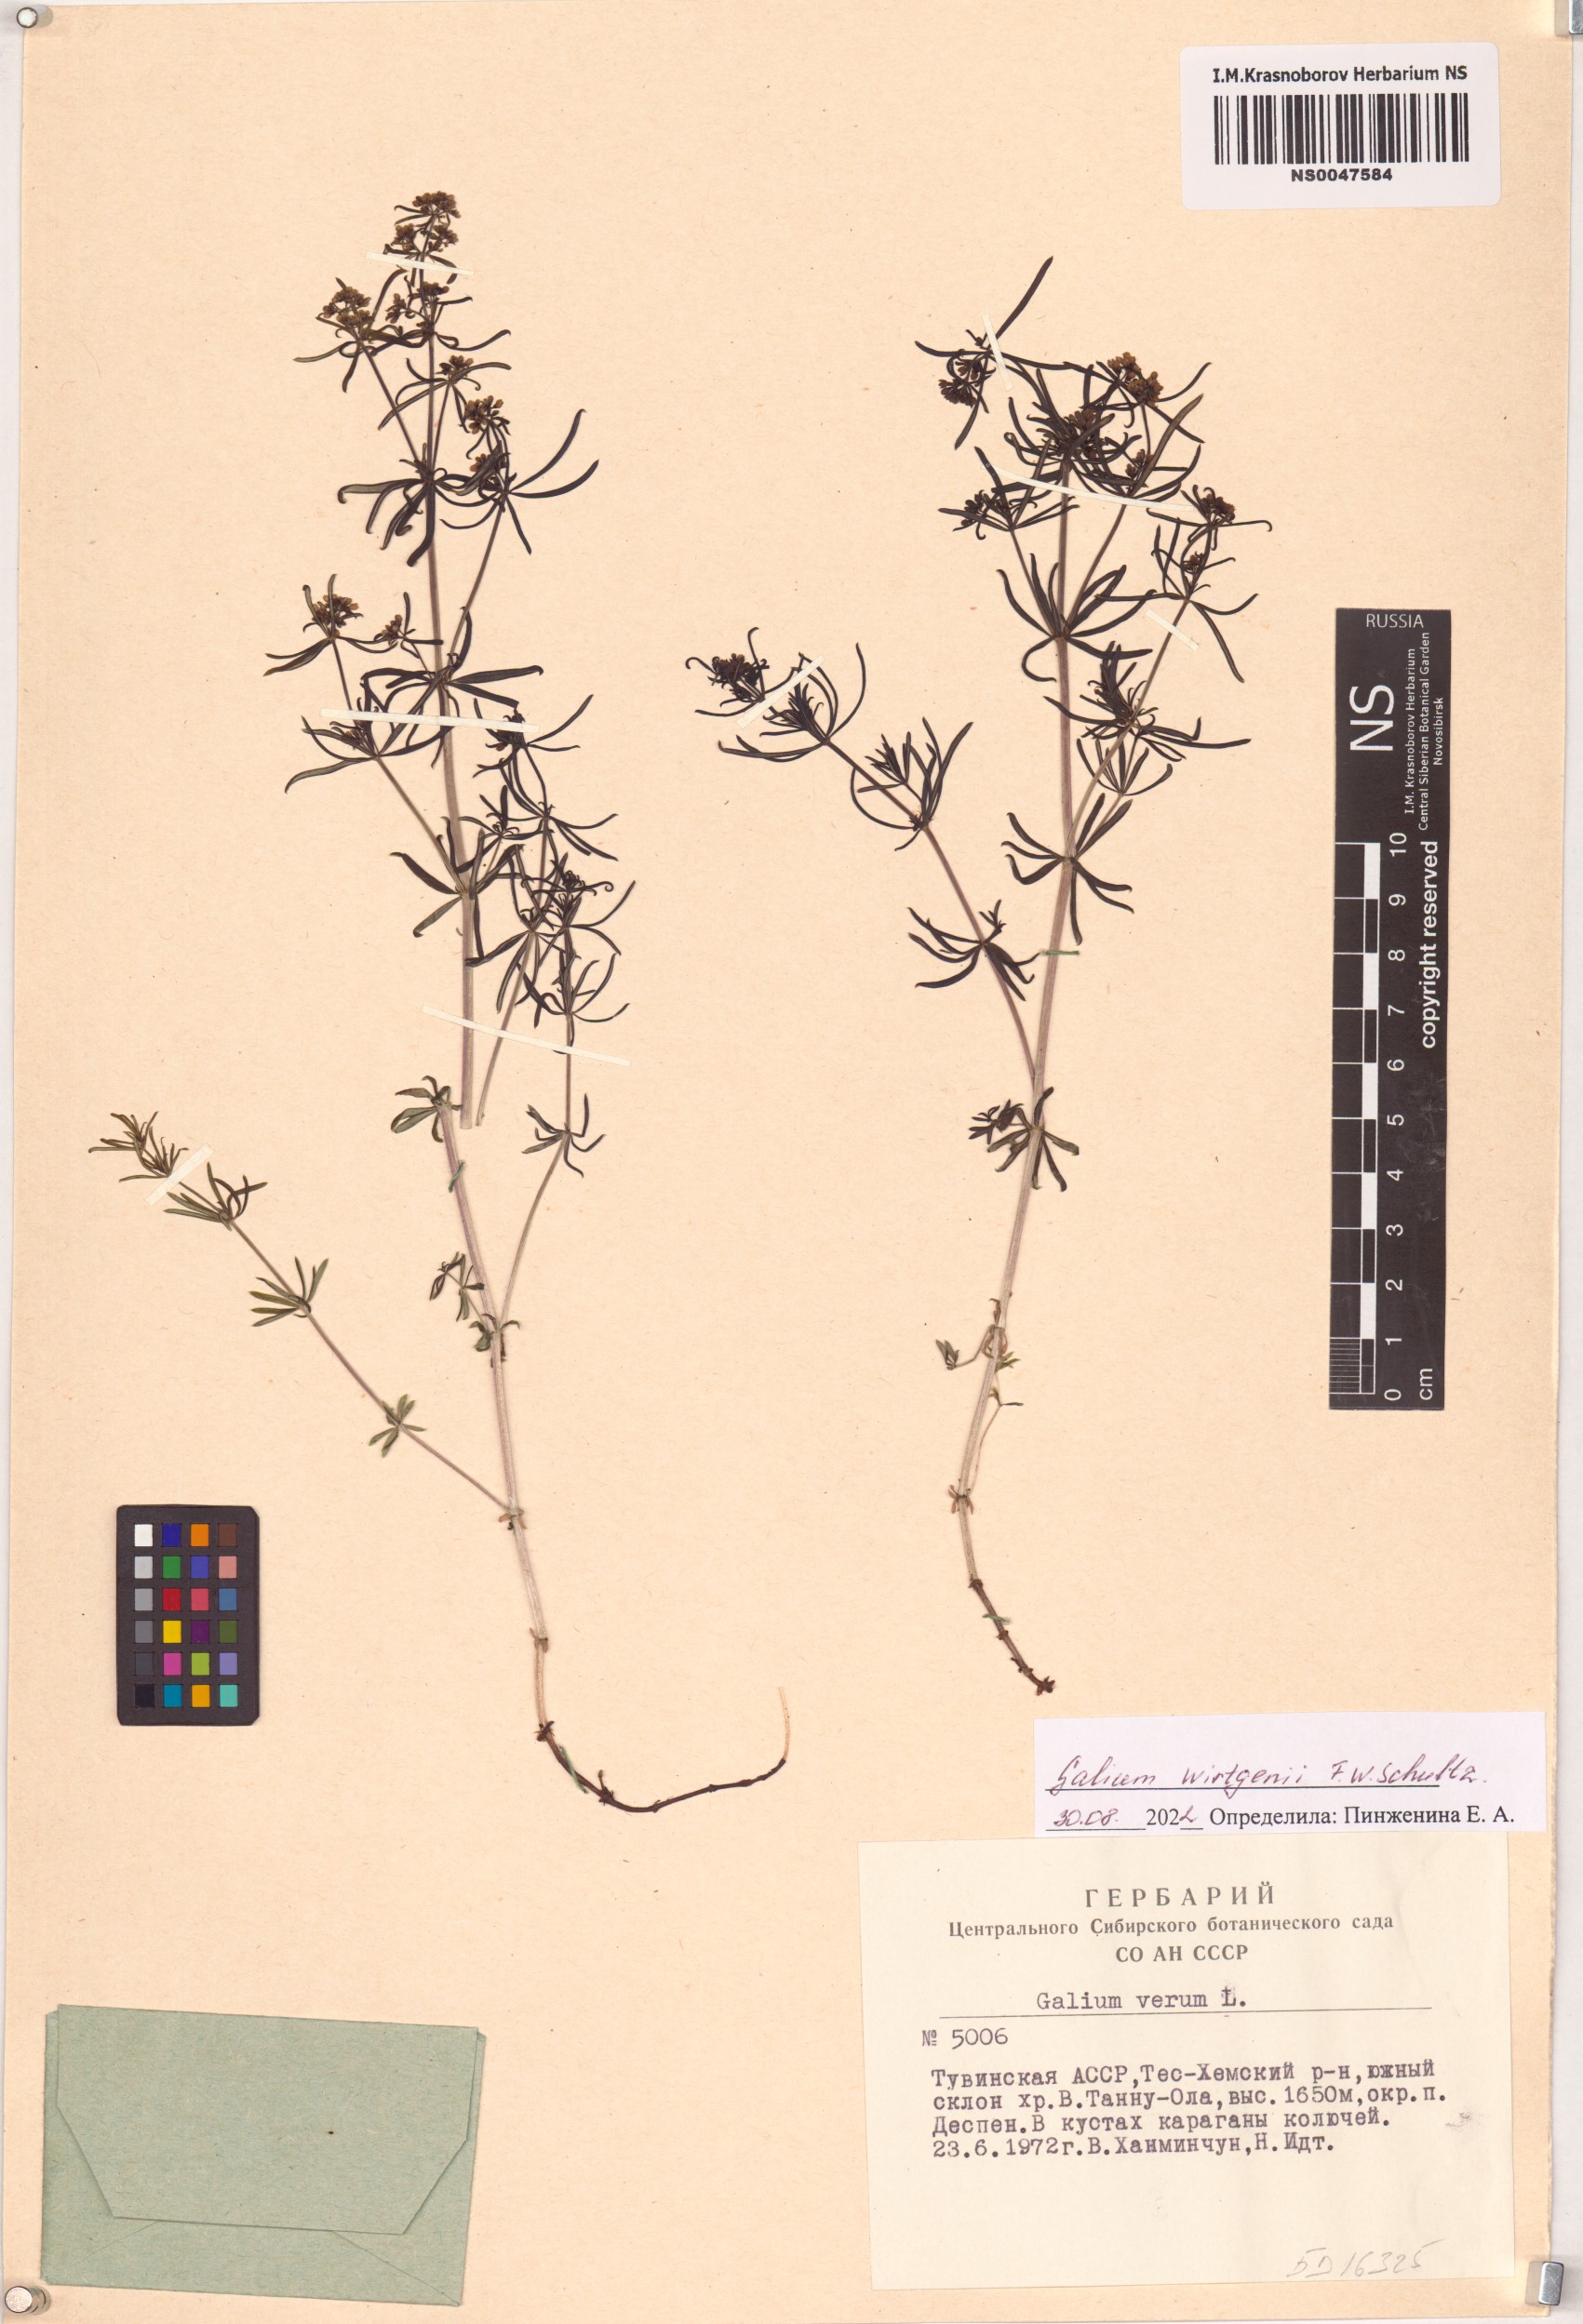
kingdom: Plantae
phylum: Tracheophyta
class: Magnoliopsida
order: Gentianales
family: Rubiaceae
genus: Galium
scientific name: Galium verum
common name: Lady's bedstraw
